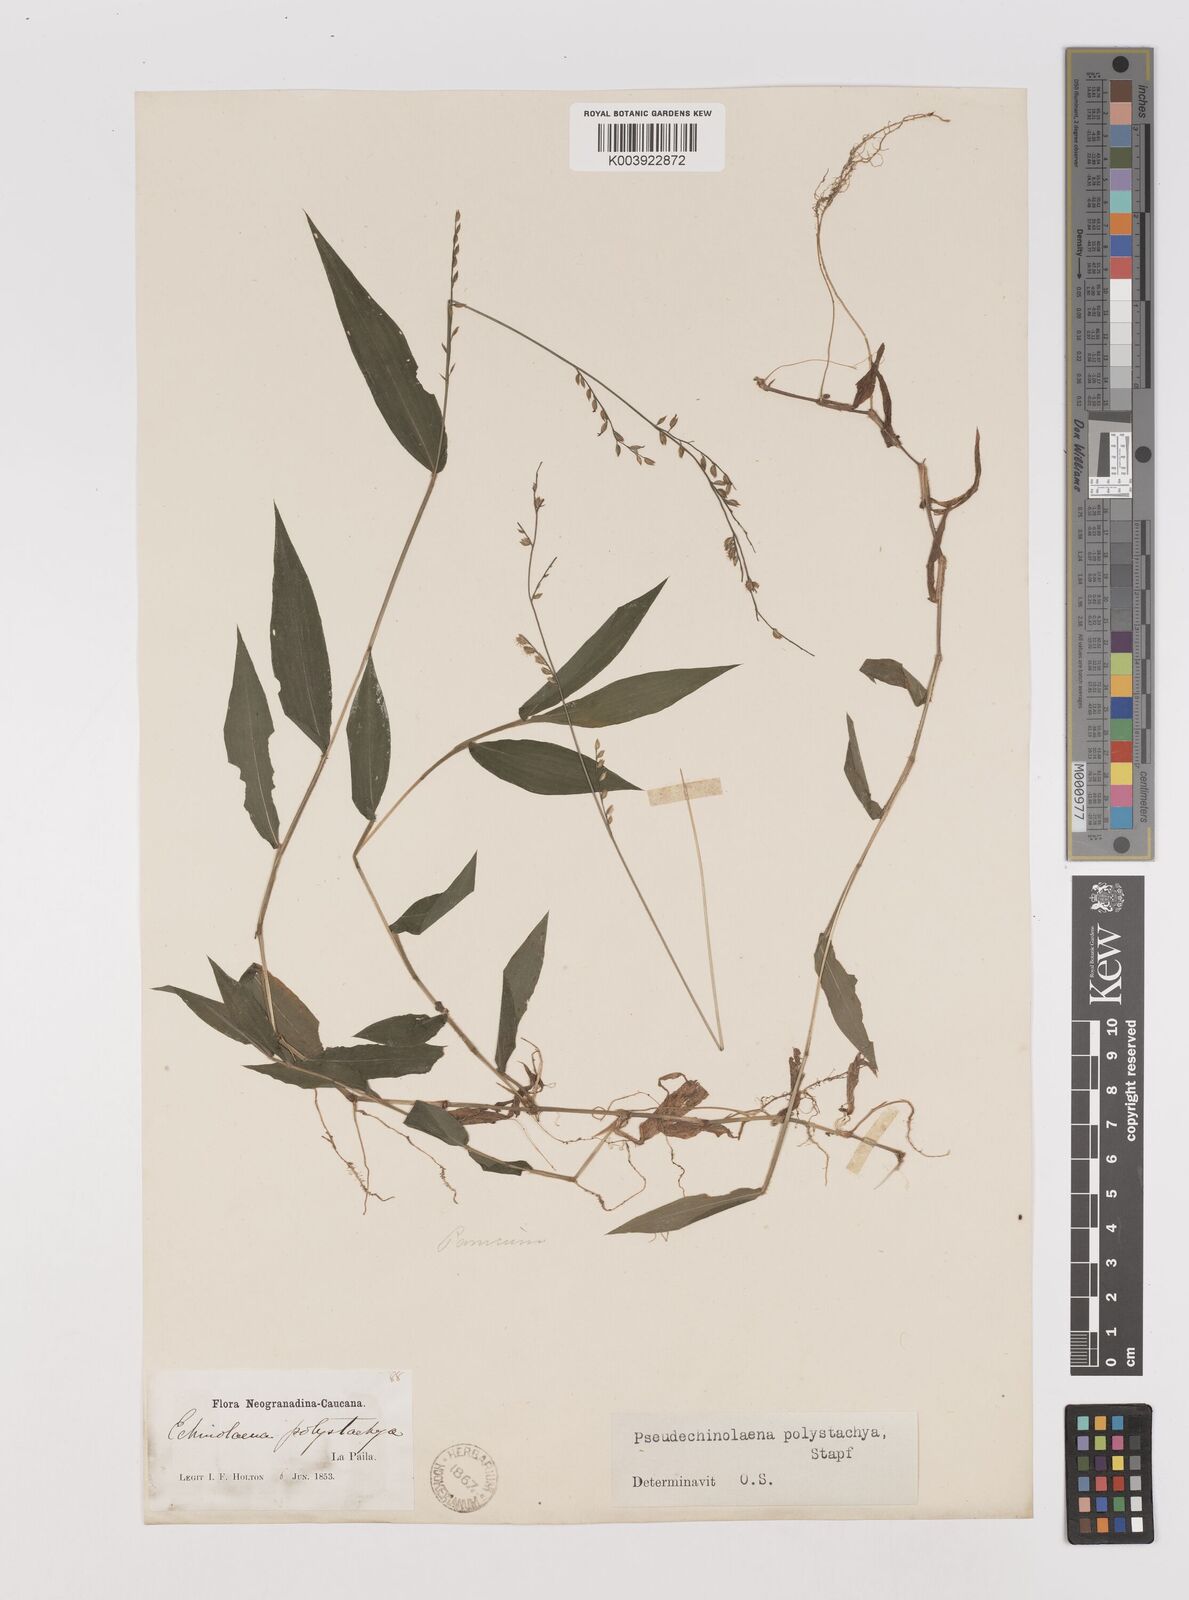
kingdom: Plantae
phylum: Tracheophyta
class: Liliopsida
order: Poales
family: Poaceae
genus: Pseudechinolaena
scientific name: Pseudechinolaena polystachya
